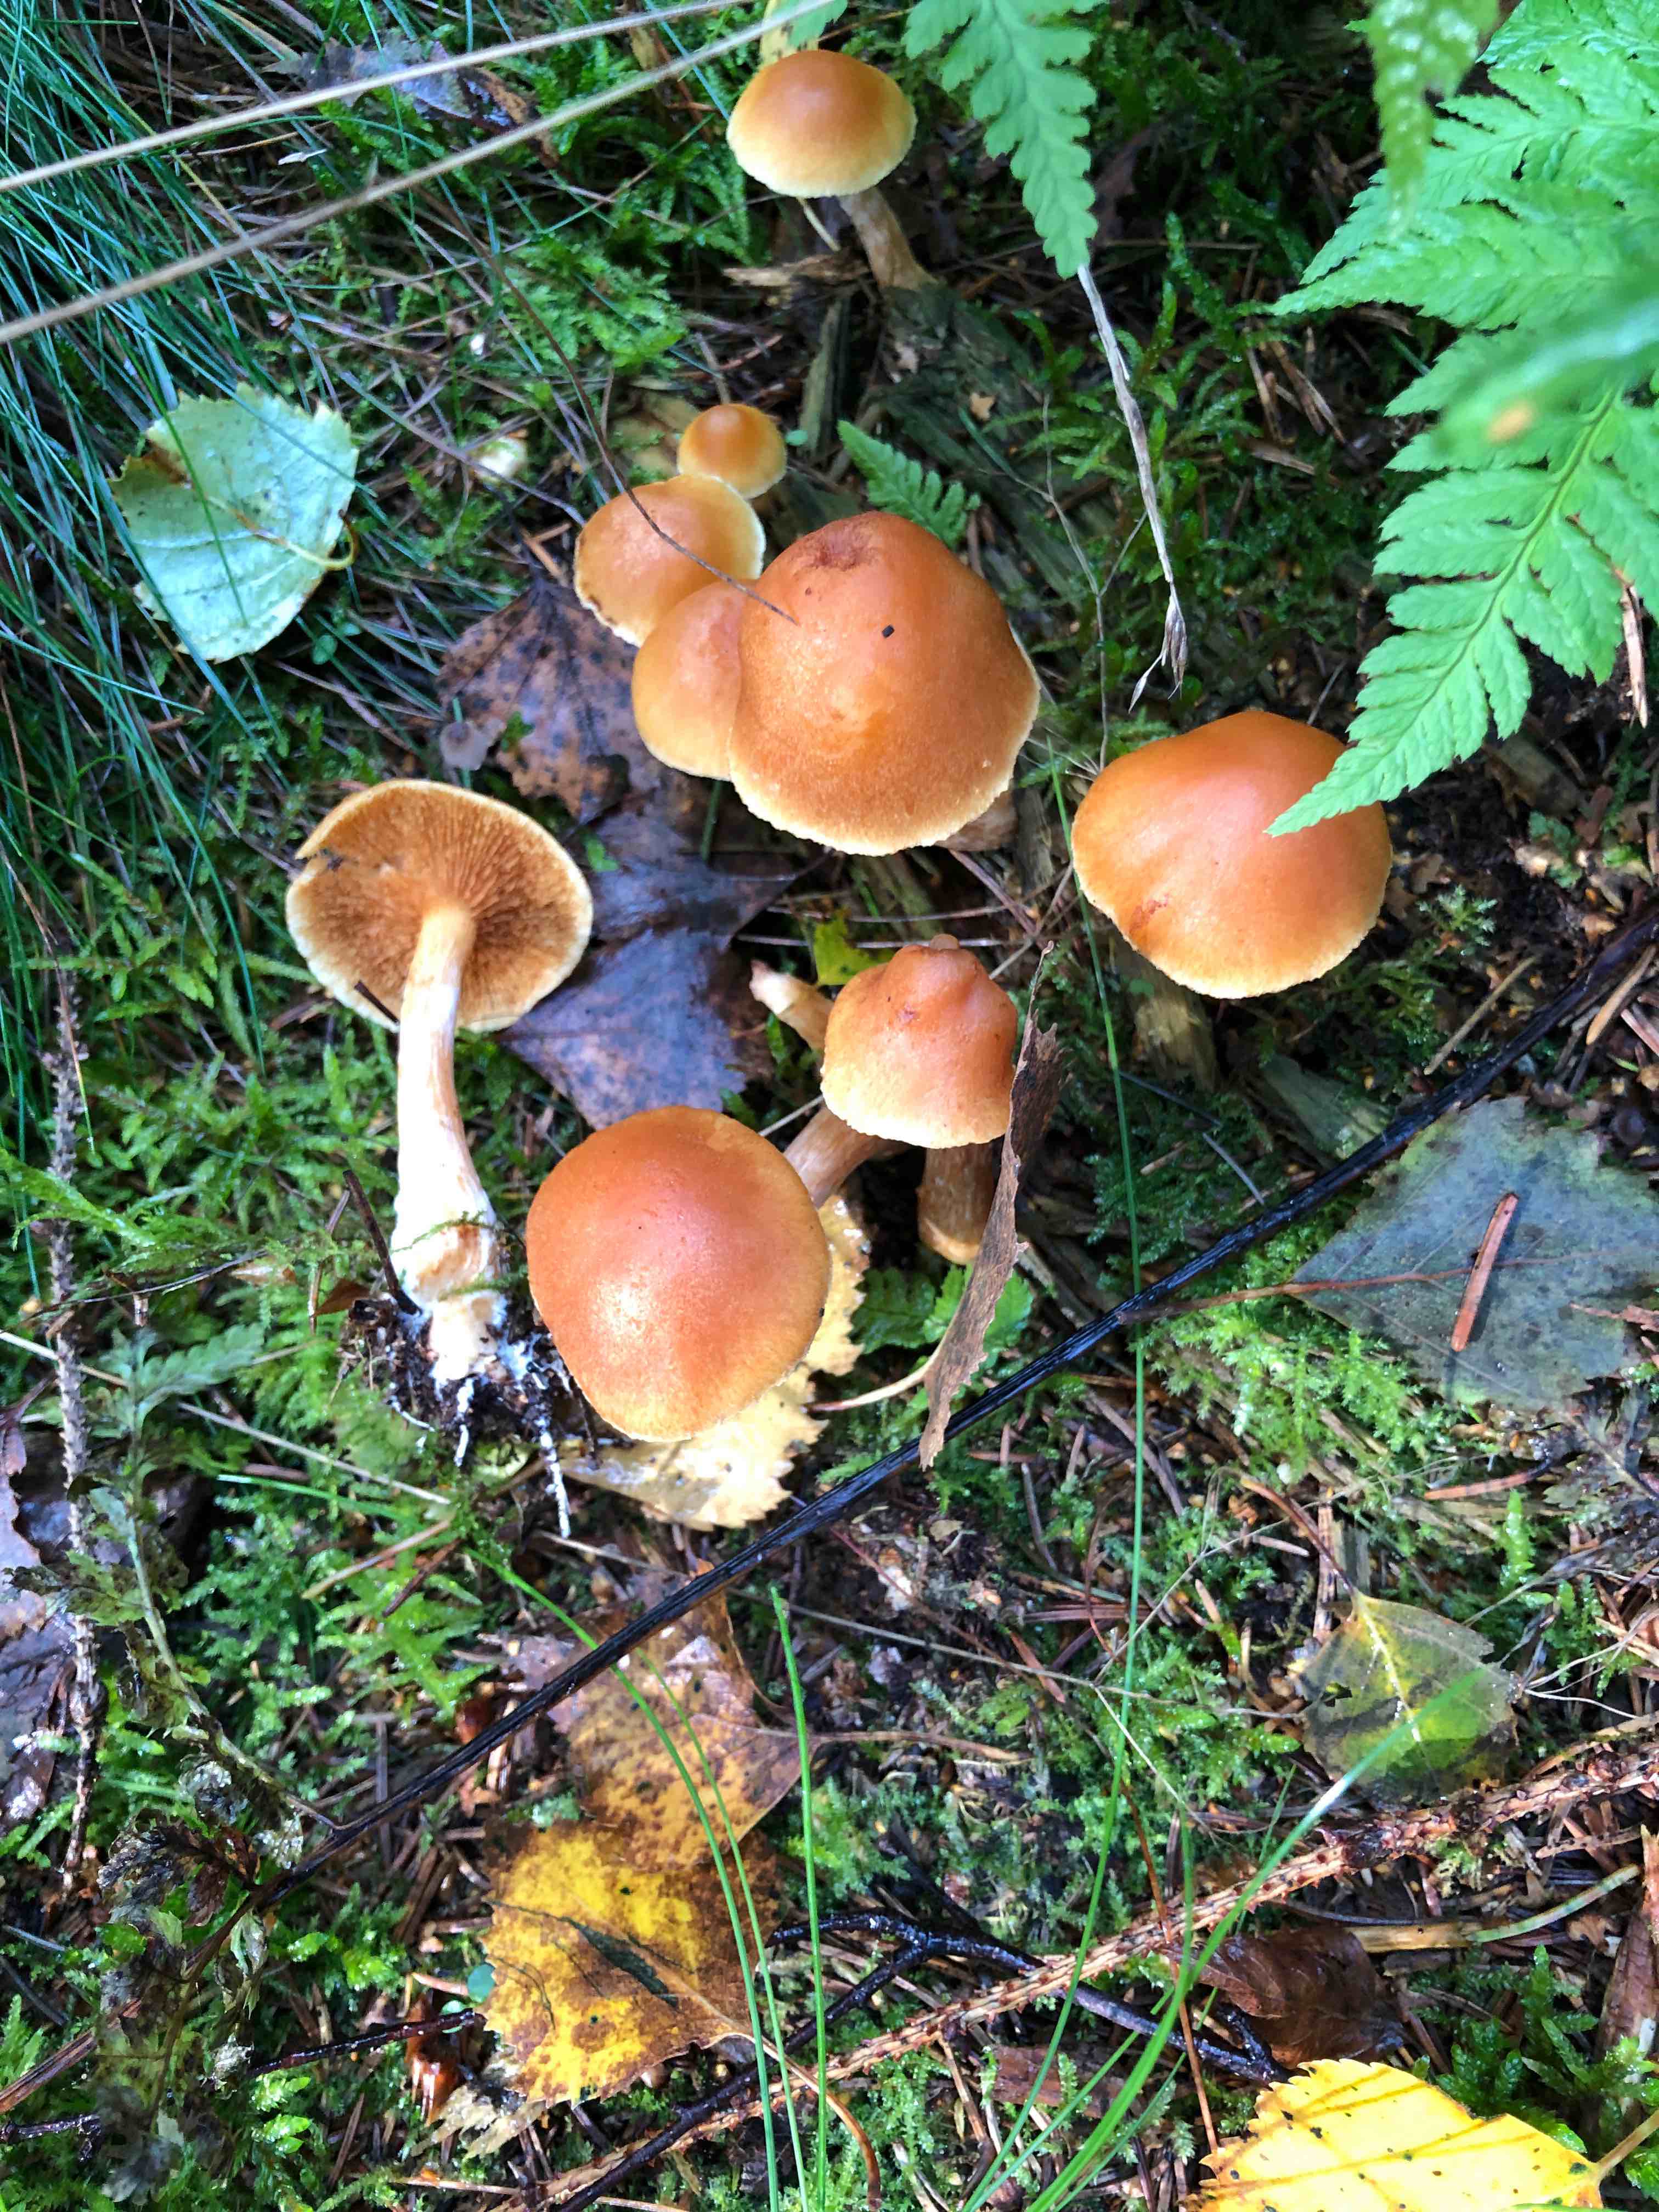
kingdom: Fungi
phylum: Basidiomycota
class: Agaricomycetes
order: Agaricales
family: Hymenogastraceae
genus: Gymnopilus
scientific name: Gymnopilus penetrans
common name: plettet flammehat
